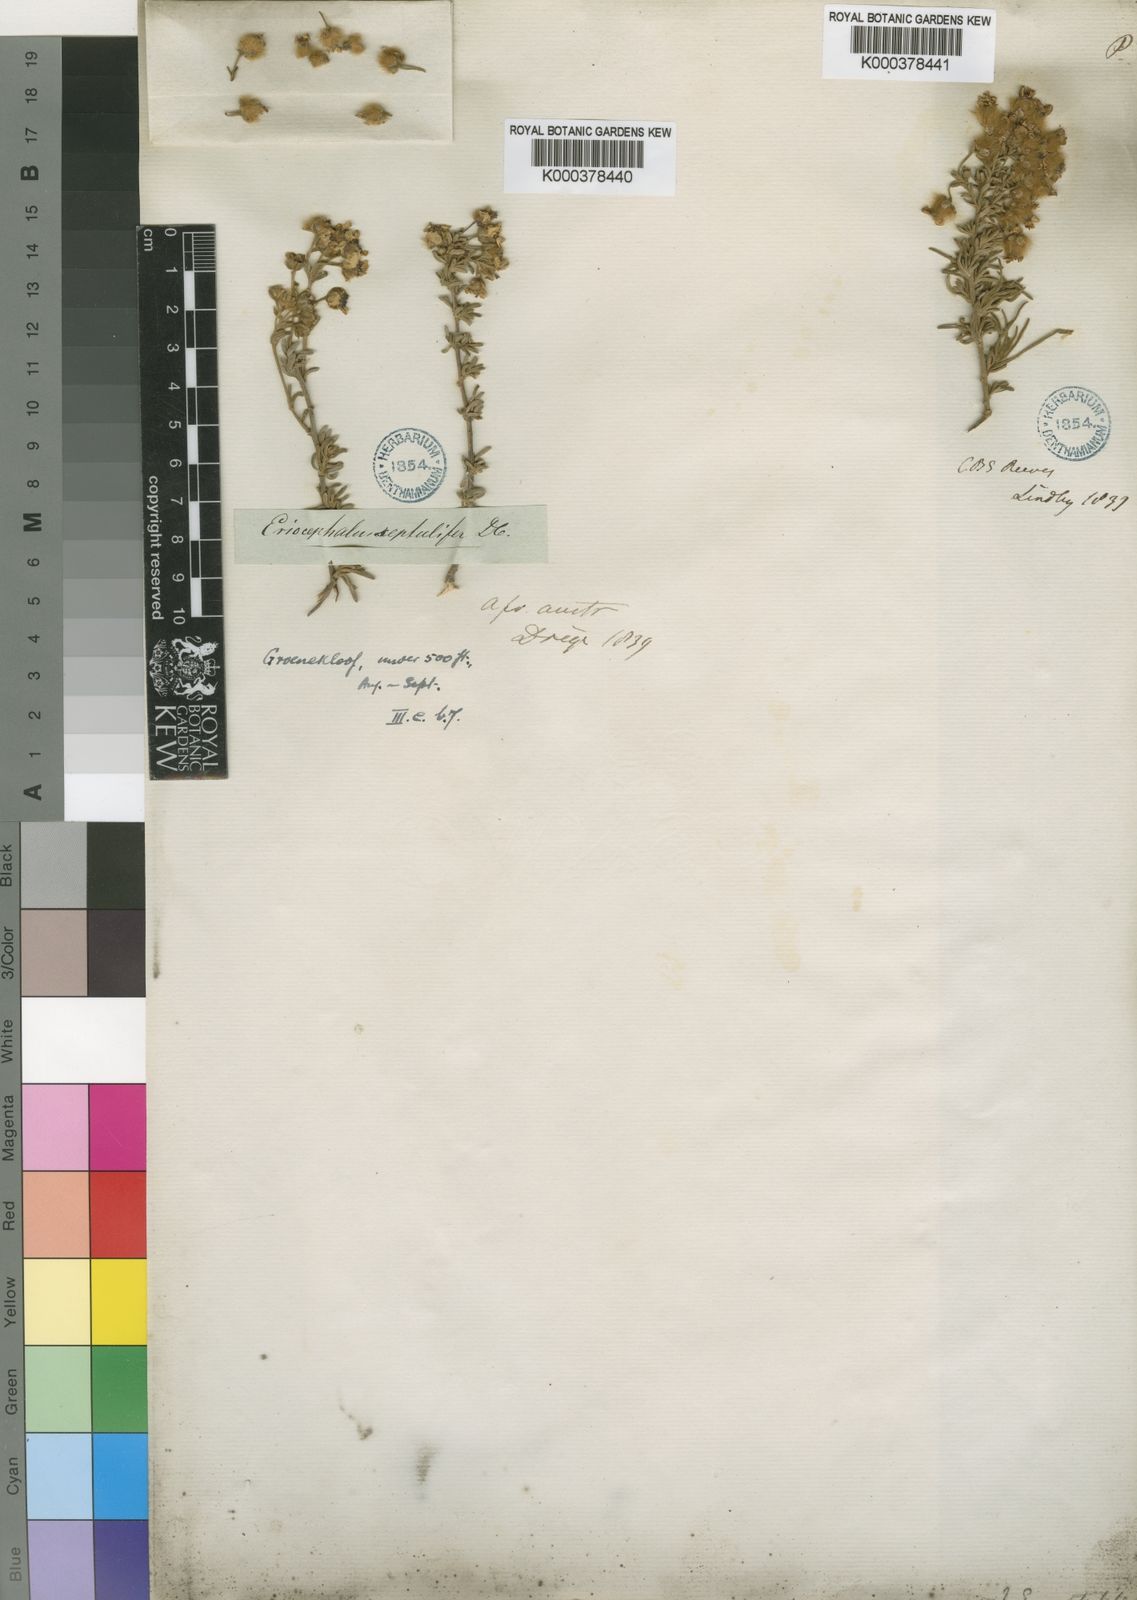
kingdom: Plantae
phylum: Tracheophyta
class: Magnoliopsida
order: Asterales
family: Asteraceae
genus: Eriocephalus
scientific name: Eriocephalus africanus
